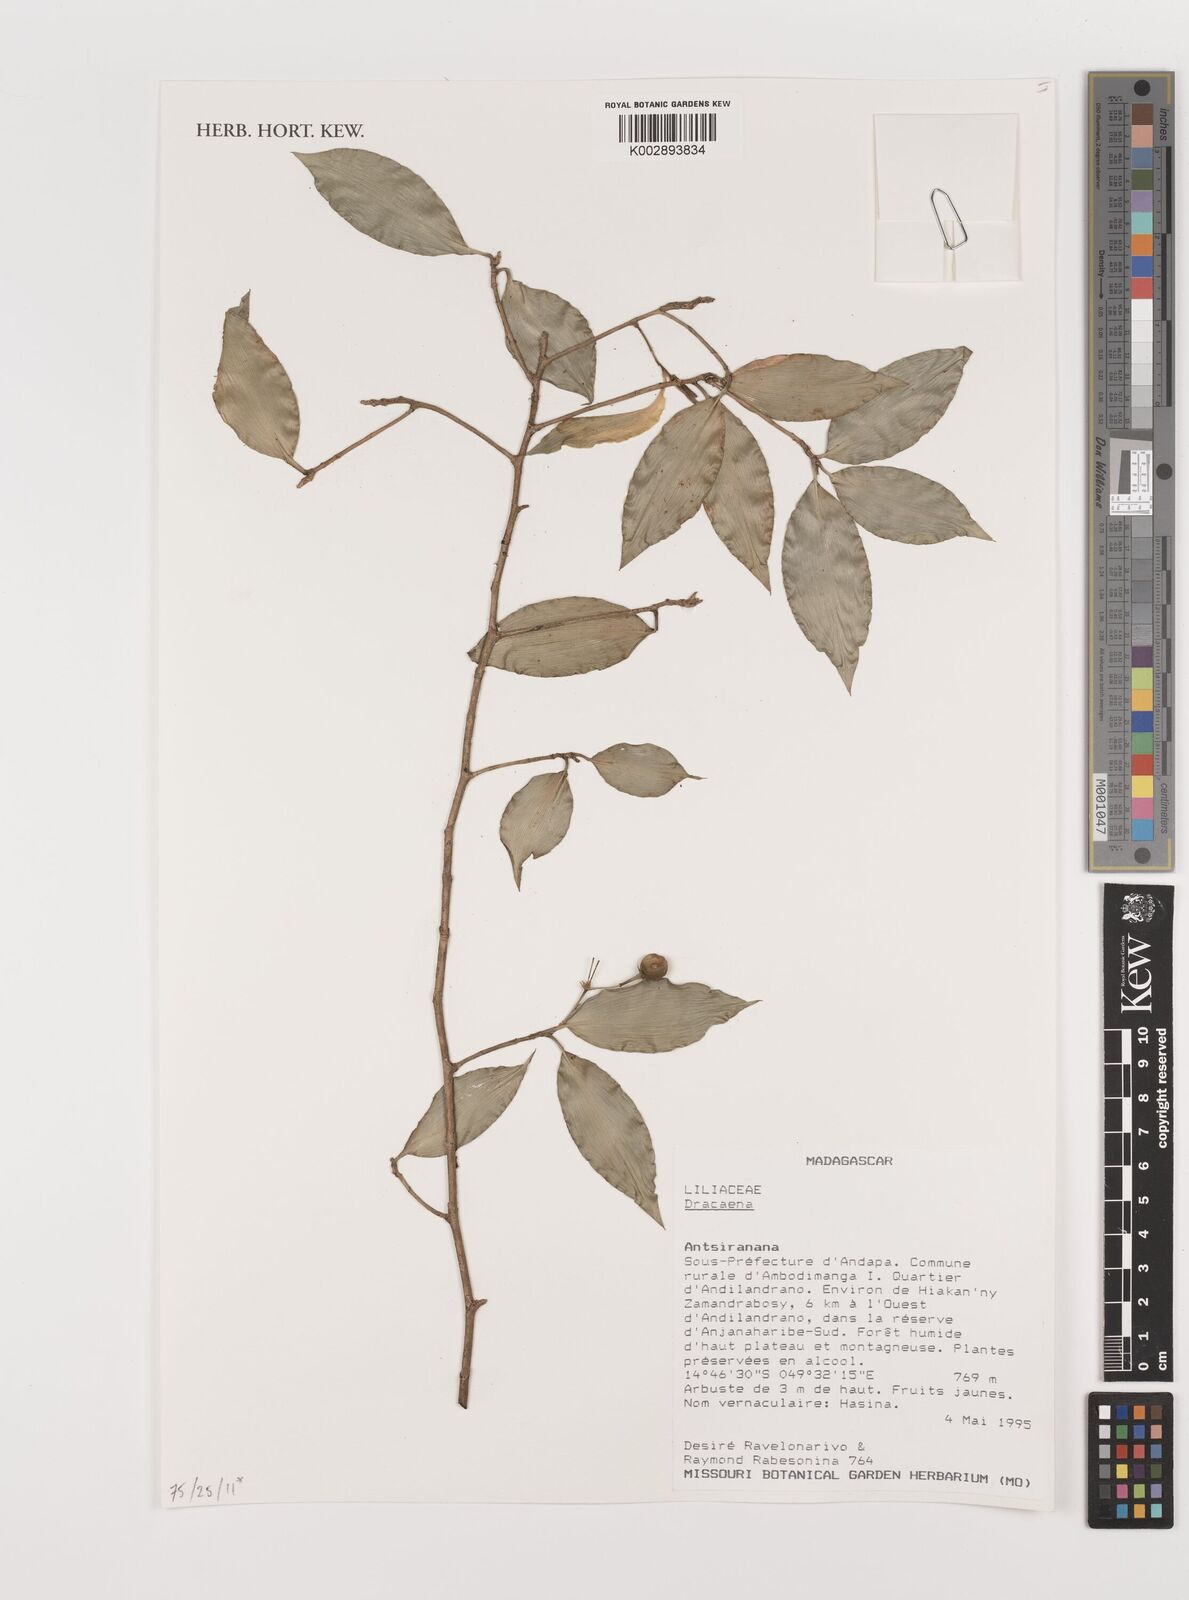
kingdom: Plantae
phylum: Tracheophyta
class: Liliopsida
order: Asparagales
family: Asparagaceae
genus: Dracaena
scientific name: Dracaena
